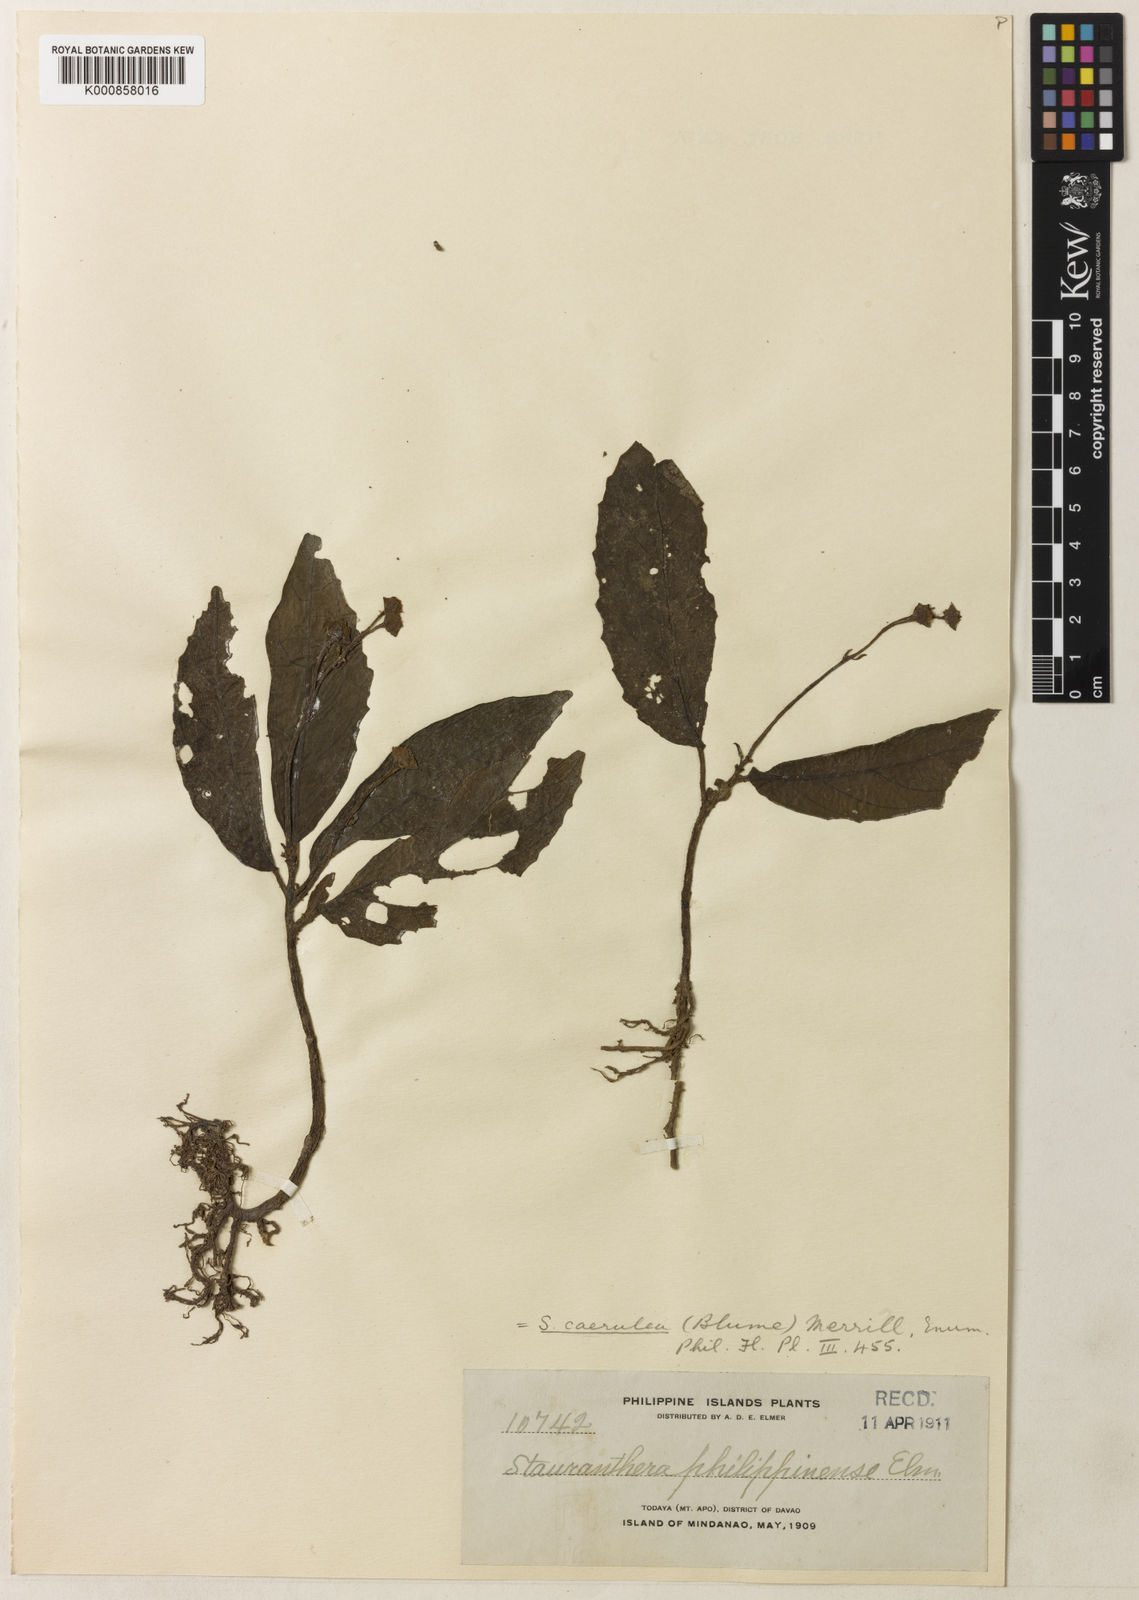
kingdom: Plantae
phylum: Tracheophyta
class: Magnoliopsida
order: Lamiales
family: Gesneriaceae
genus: Stauranthera
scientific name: Stauranthera coerulea
